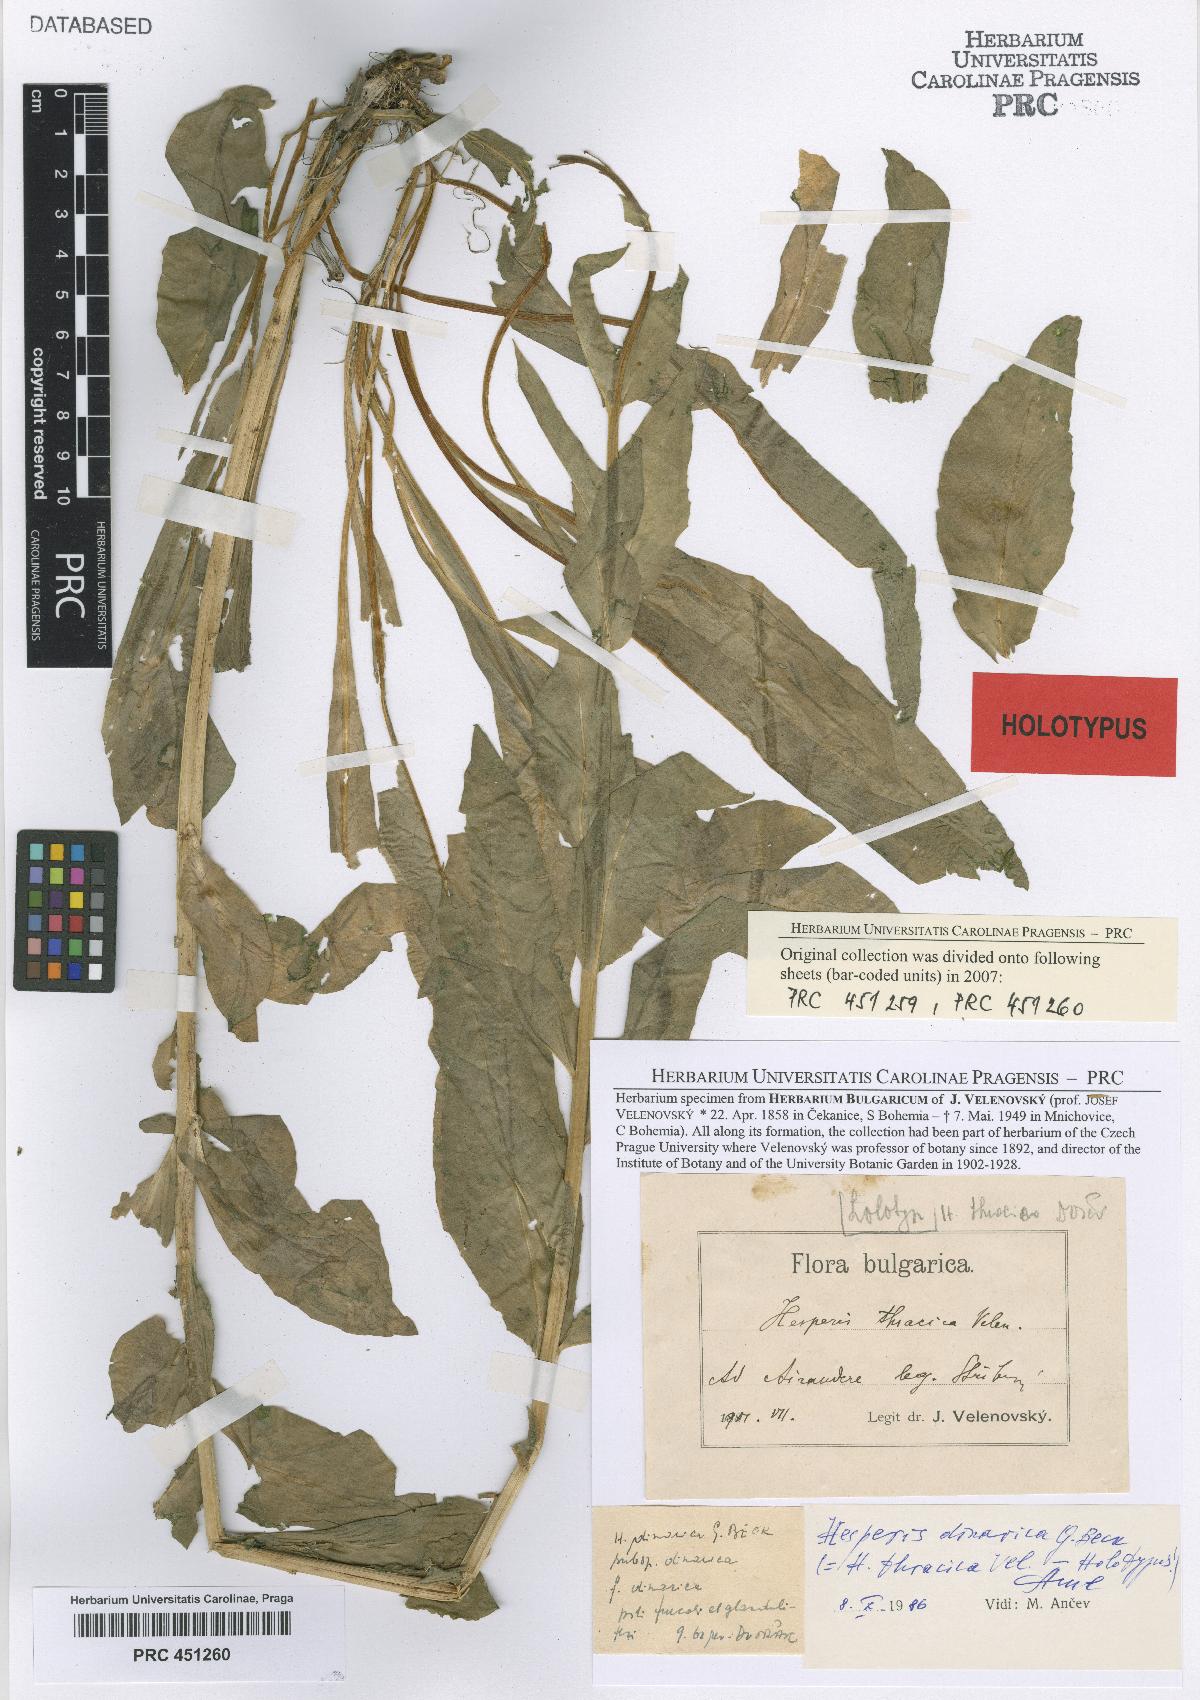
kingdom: Plantae
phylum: Tracheophyta
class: Magnoliopsida
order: Brassicales
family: Brassicaceae
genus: Hesperis
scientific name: Hesperis matronalis
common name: Dame's-violet
